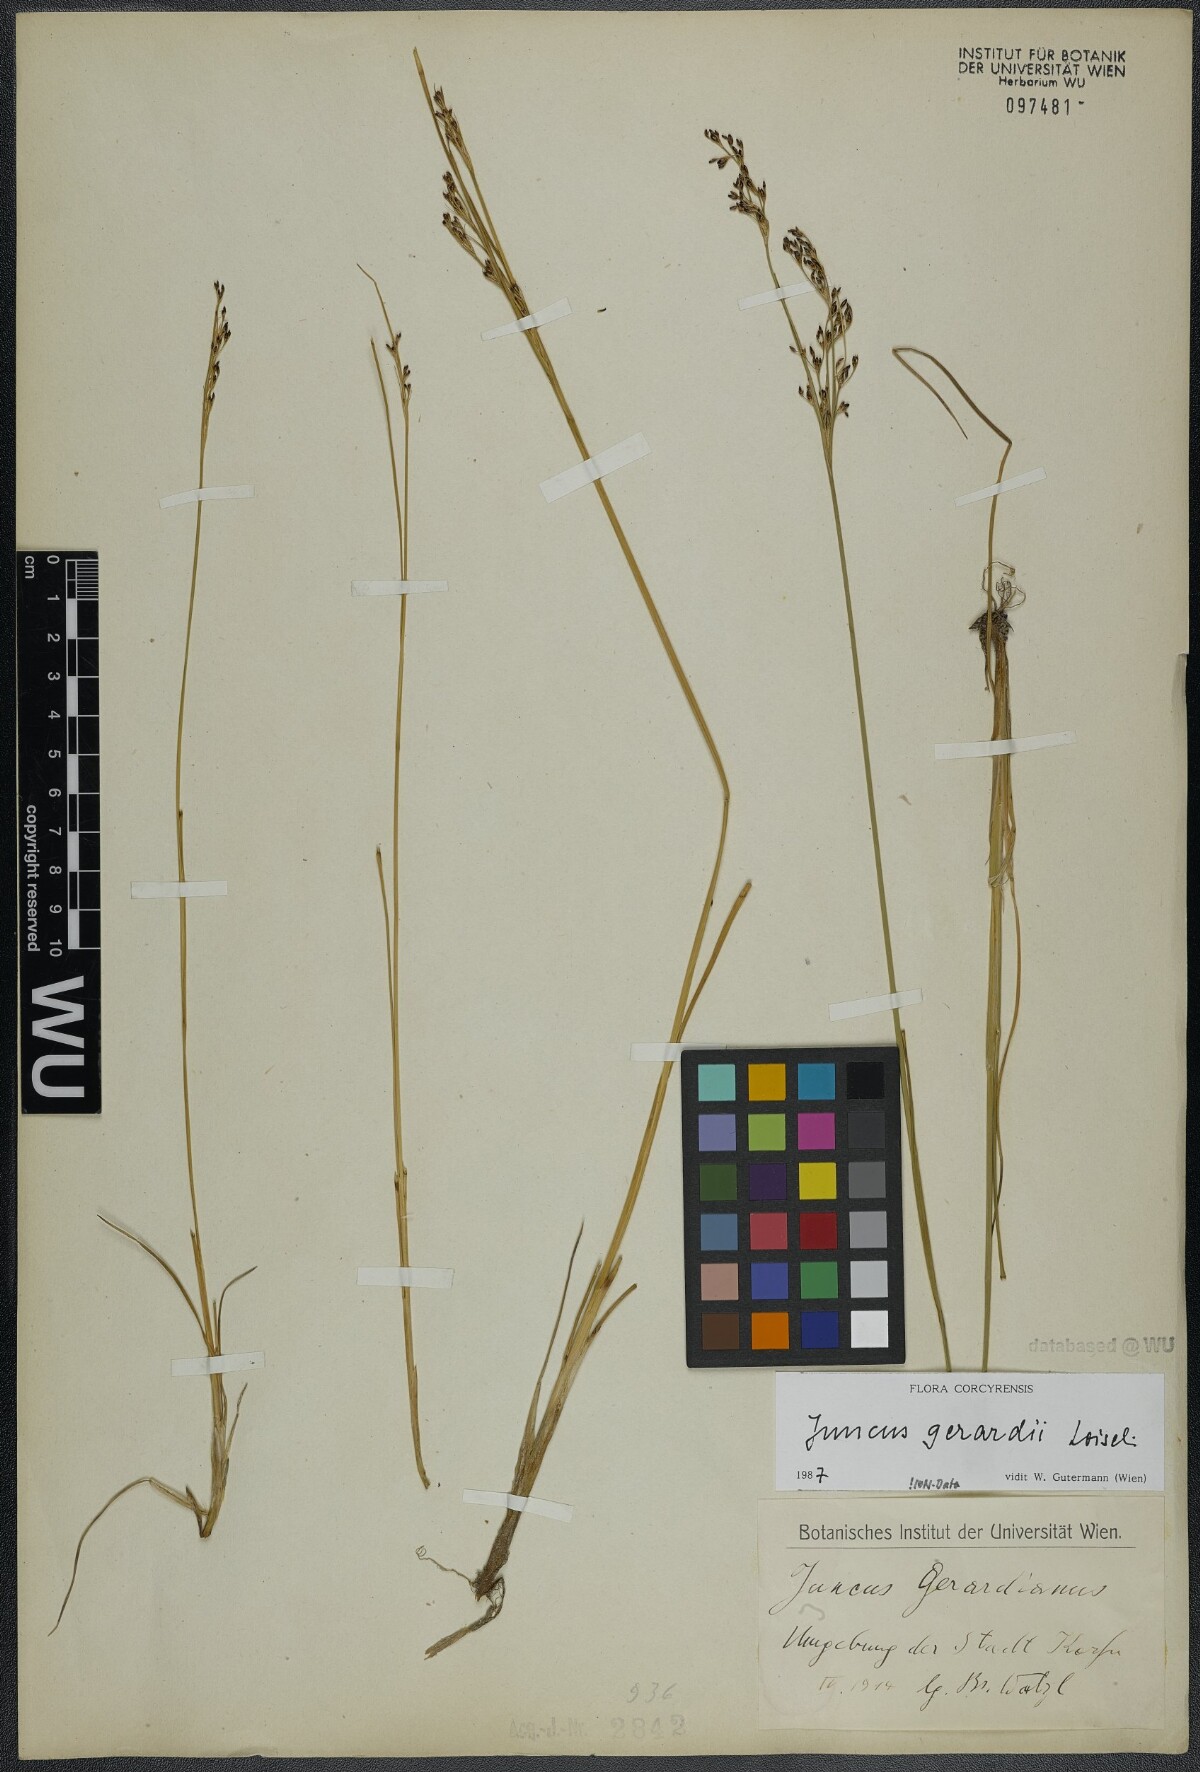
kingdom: Plantae
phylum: Tracheophyta
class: Liliopsida
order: Poales
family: Juncaceae
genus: Juncus
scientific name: Juncus gerardi
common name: Saltmarsh rush
